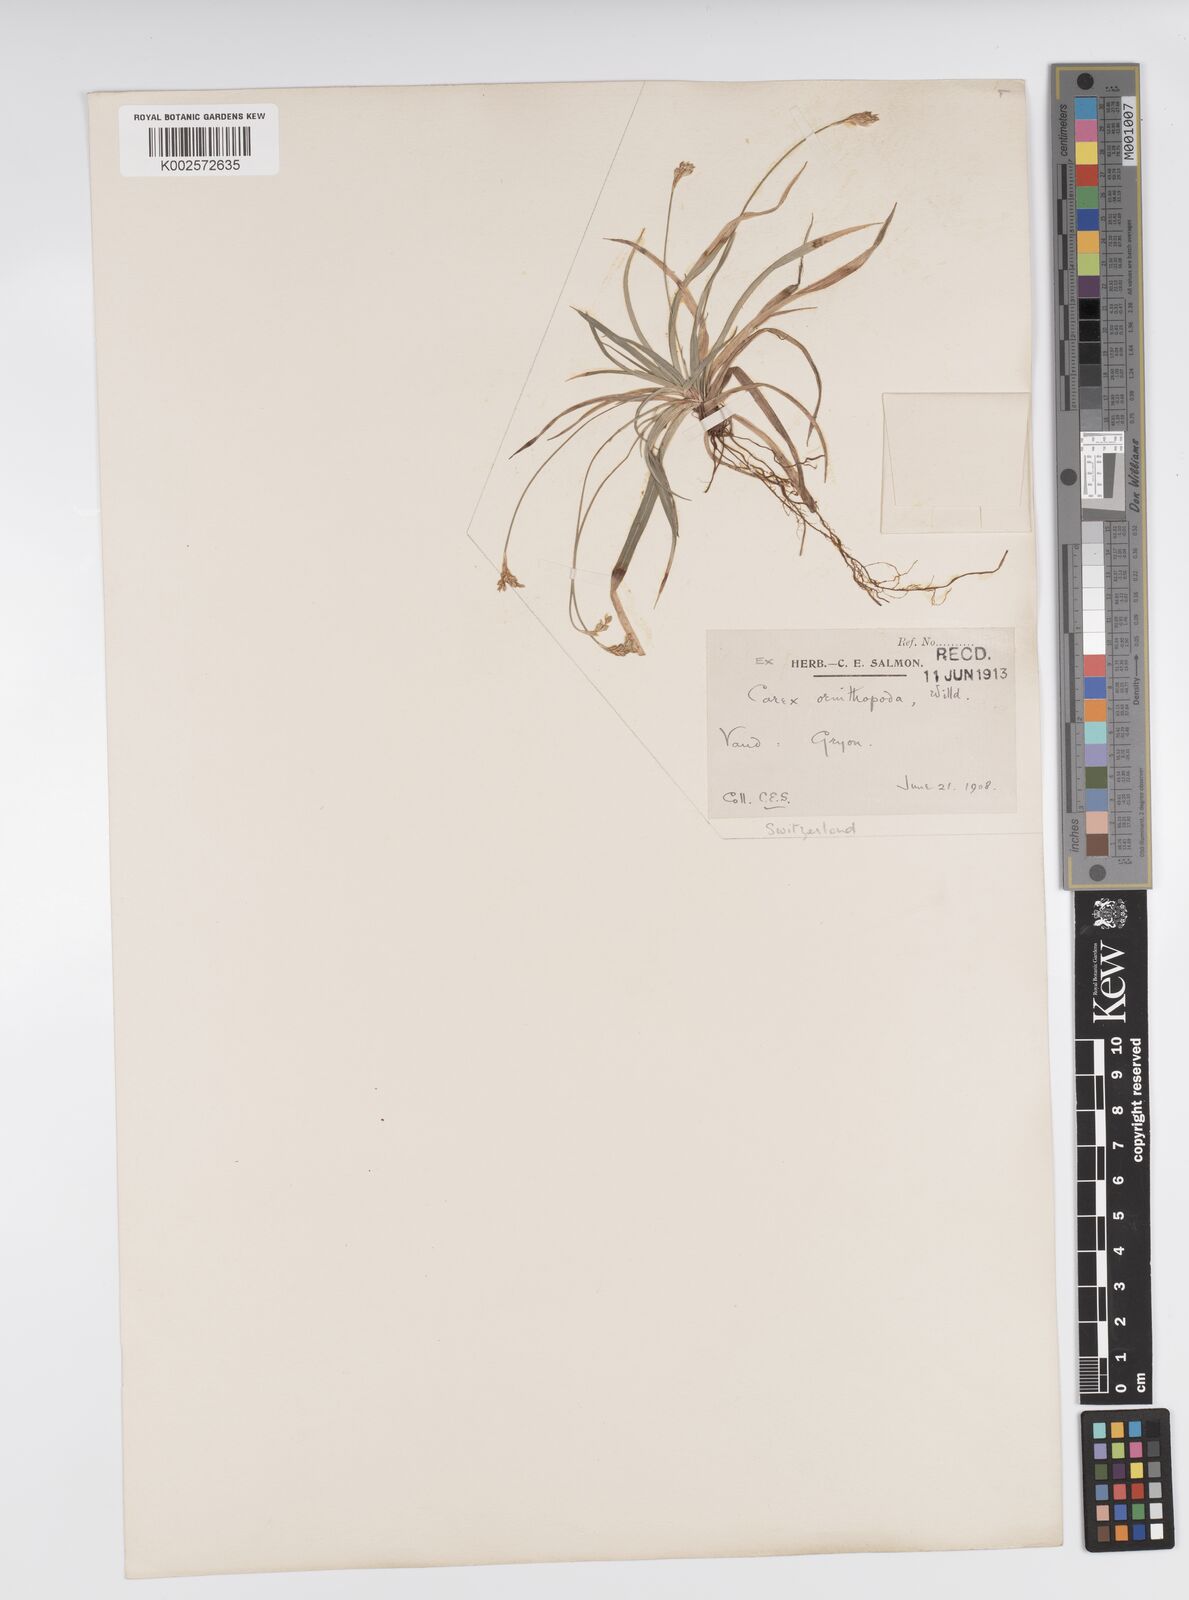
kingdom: Plantae
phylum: Tracheophyta
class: Liliopsida
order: Poales
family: Cyperaceae
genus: Carex
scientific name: Carex ornithopoda
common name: Bird's-foot sedge
